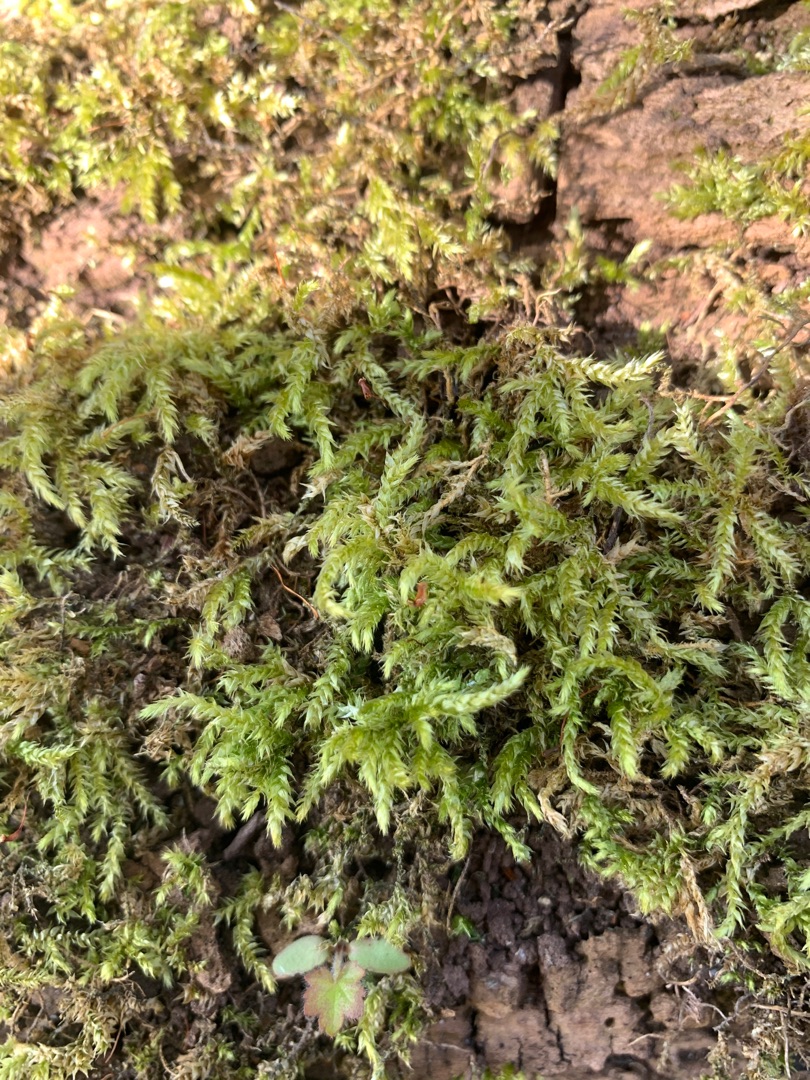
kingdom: Plantae
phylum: Bryophyta
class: Bryopsida
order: Hypnales
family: Brachytheciaceae
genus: Brachythecium
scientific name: Brachythecium rutabulum
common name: Almindelig kortkapsel
